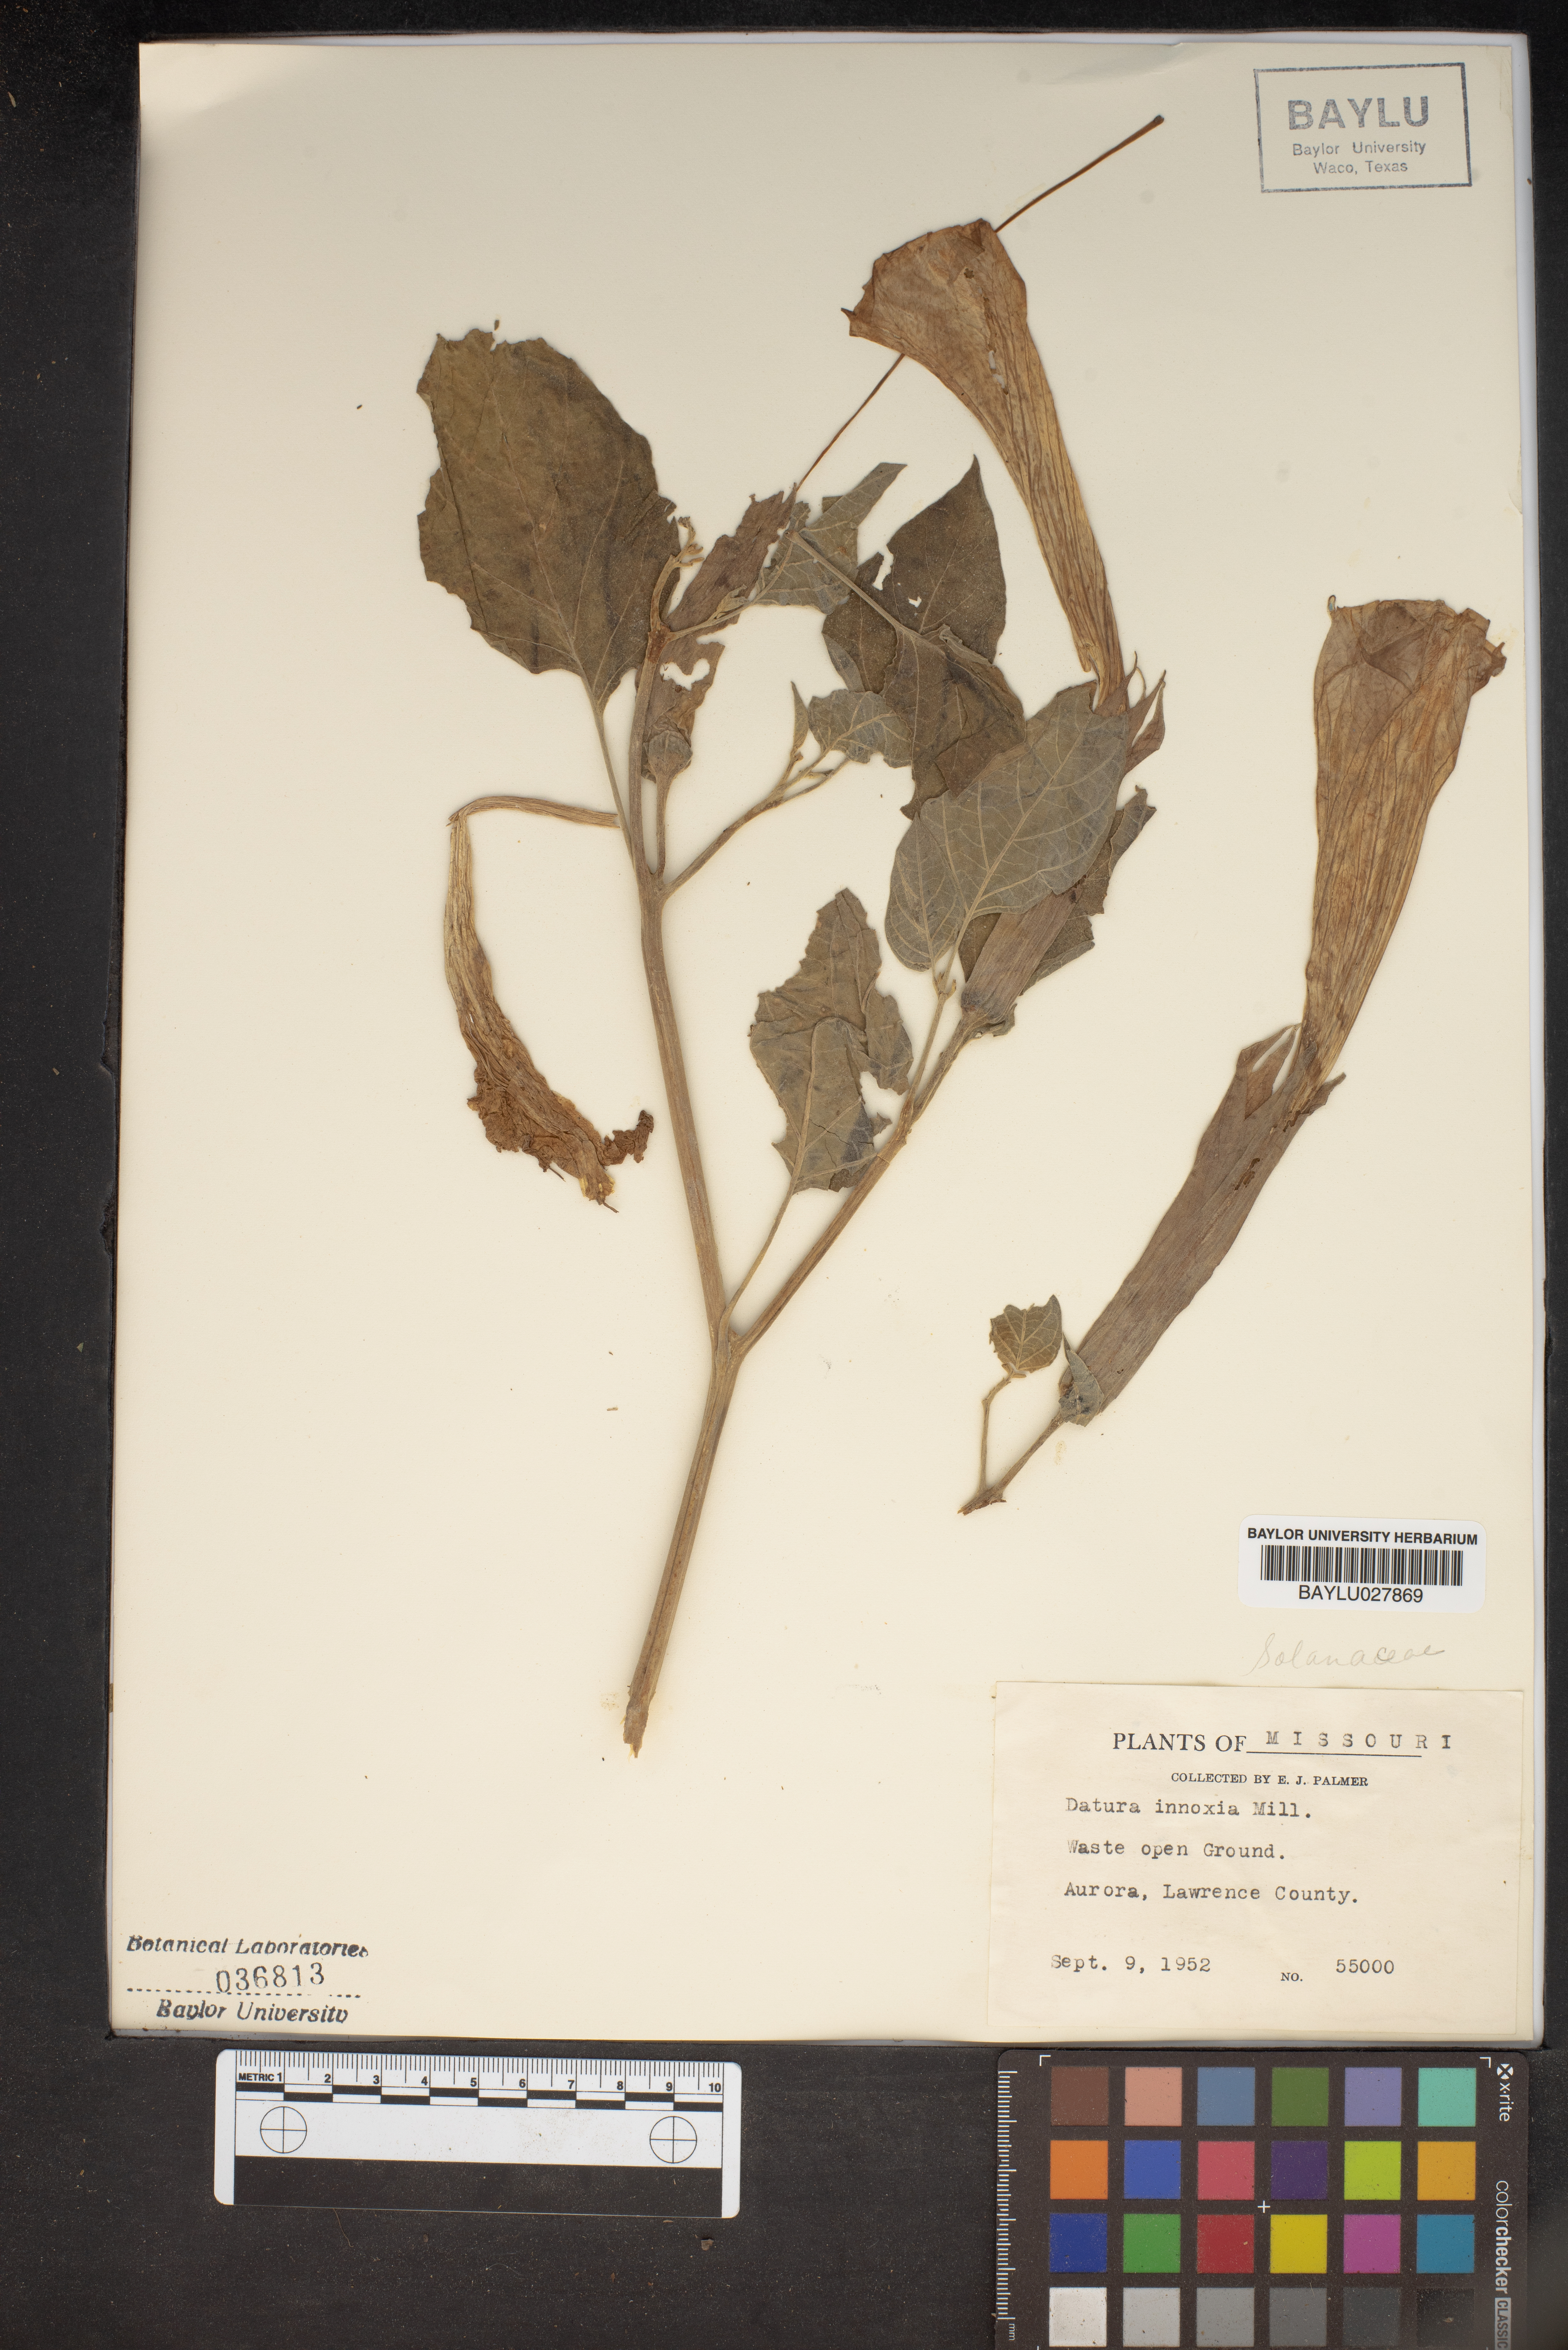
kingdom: Plantae
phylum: Tracheophyta
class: Magnoliopsida
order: Solanales
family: Solanaceae
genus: Datura
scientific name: Datura innoxia
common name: Downy thorn-apple
